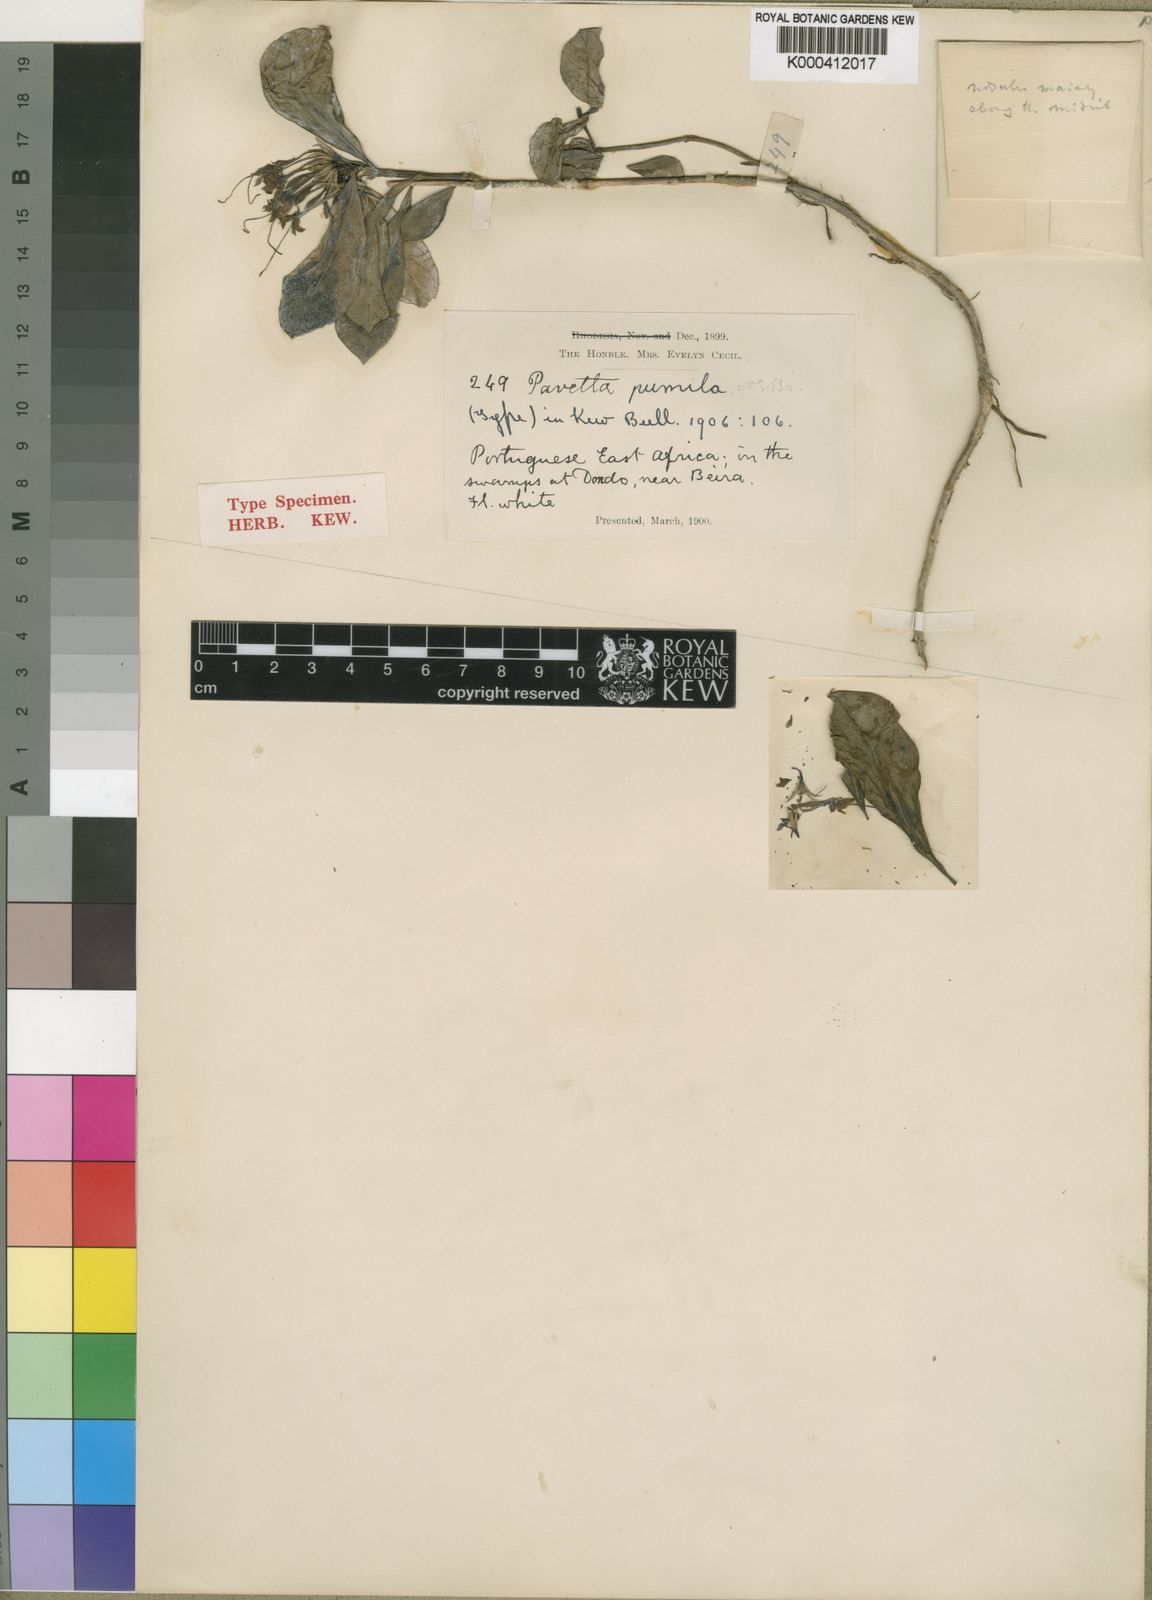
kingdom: Plantae
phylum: Tracheophyta
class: Magnoliopsida
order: Gentianales
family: Rubiaceae
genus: Pavetta
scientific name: Pavetta pumila
